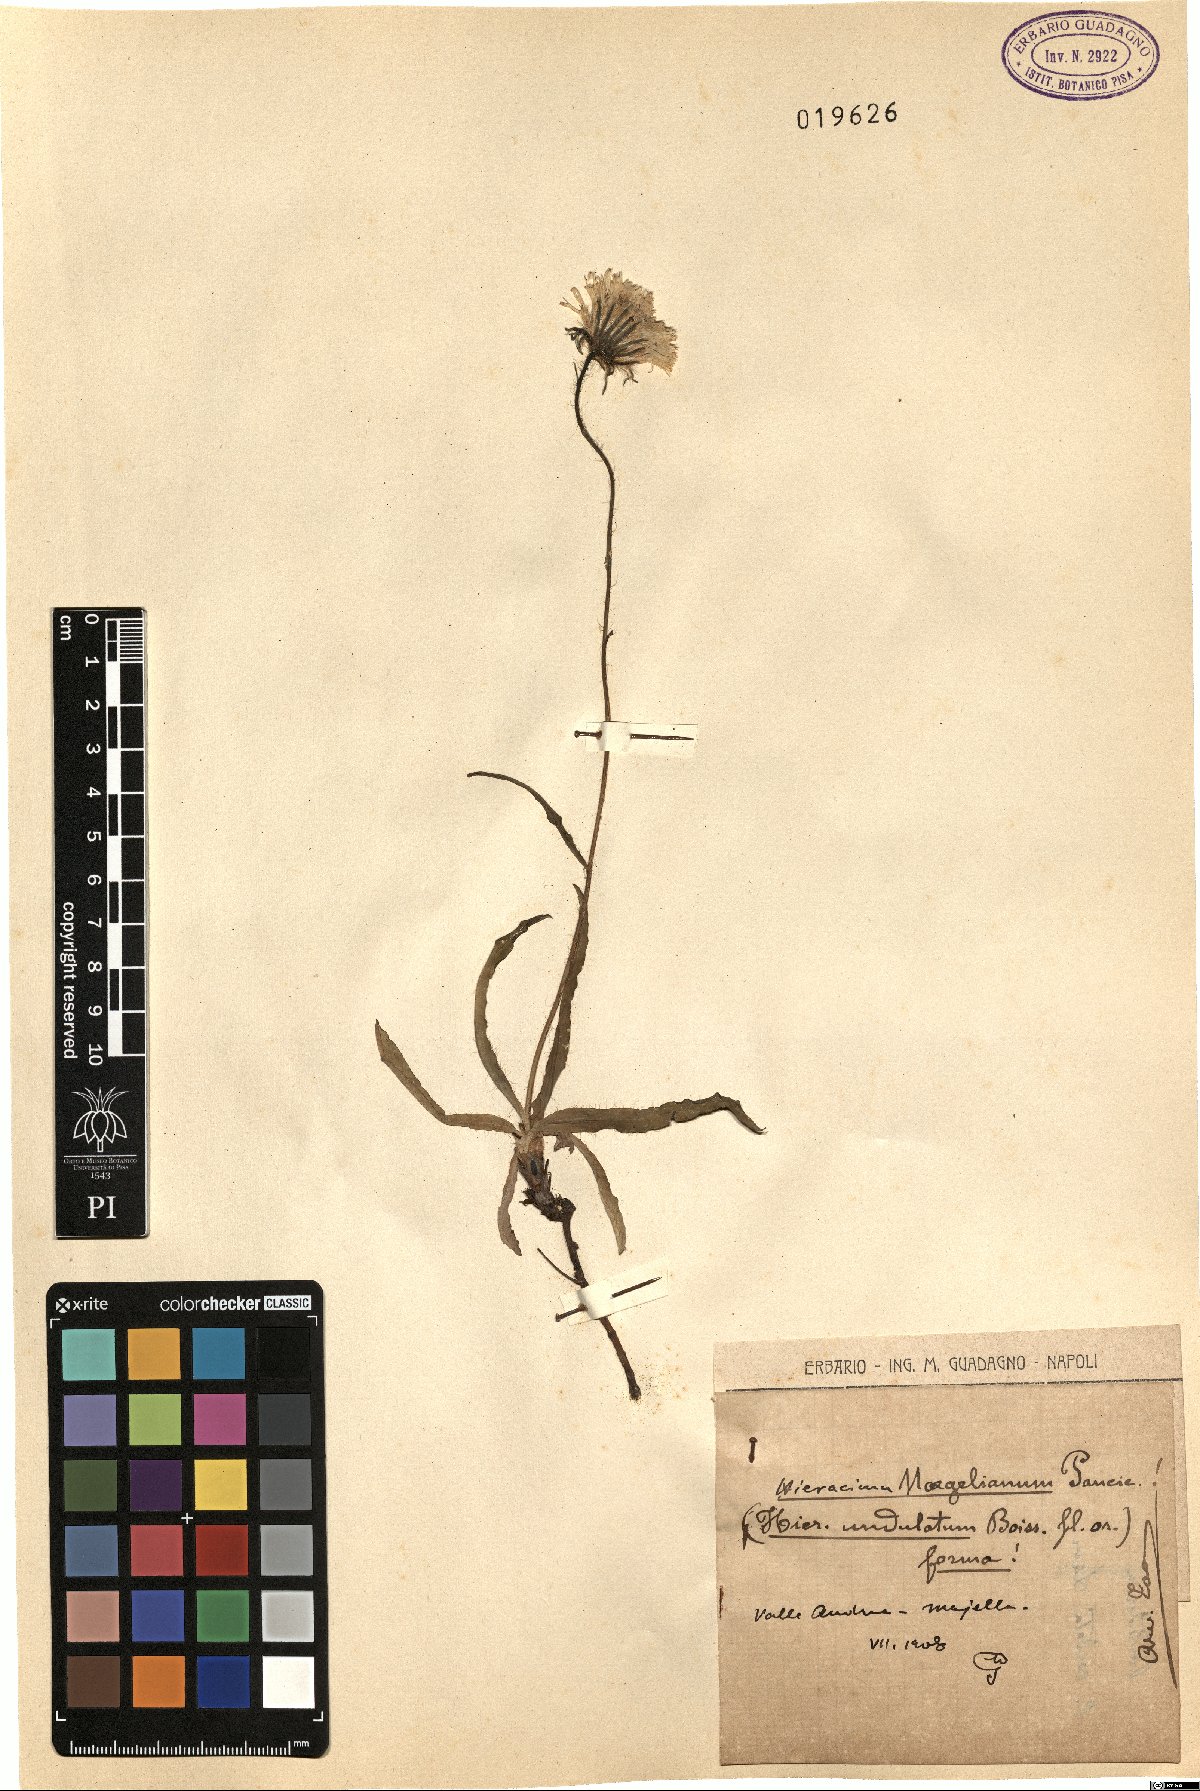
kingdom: Plantae
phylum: Tracheophyta
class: Magnoliopsida
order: Asterales
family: Asteraceae
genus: Hieracium
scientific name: Hieracium naegelianum
